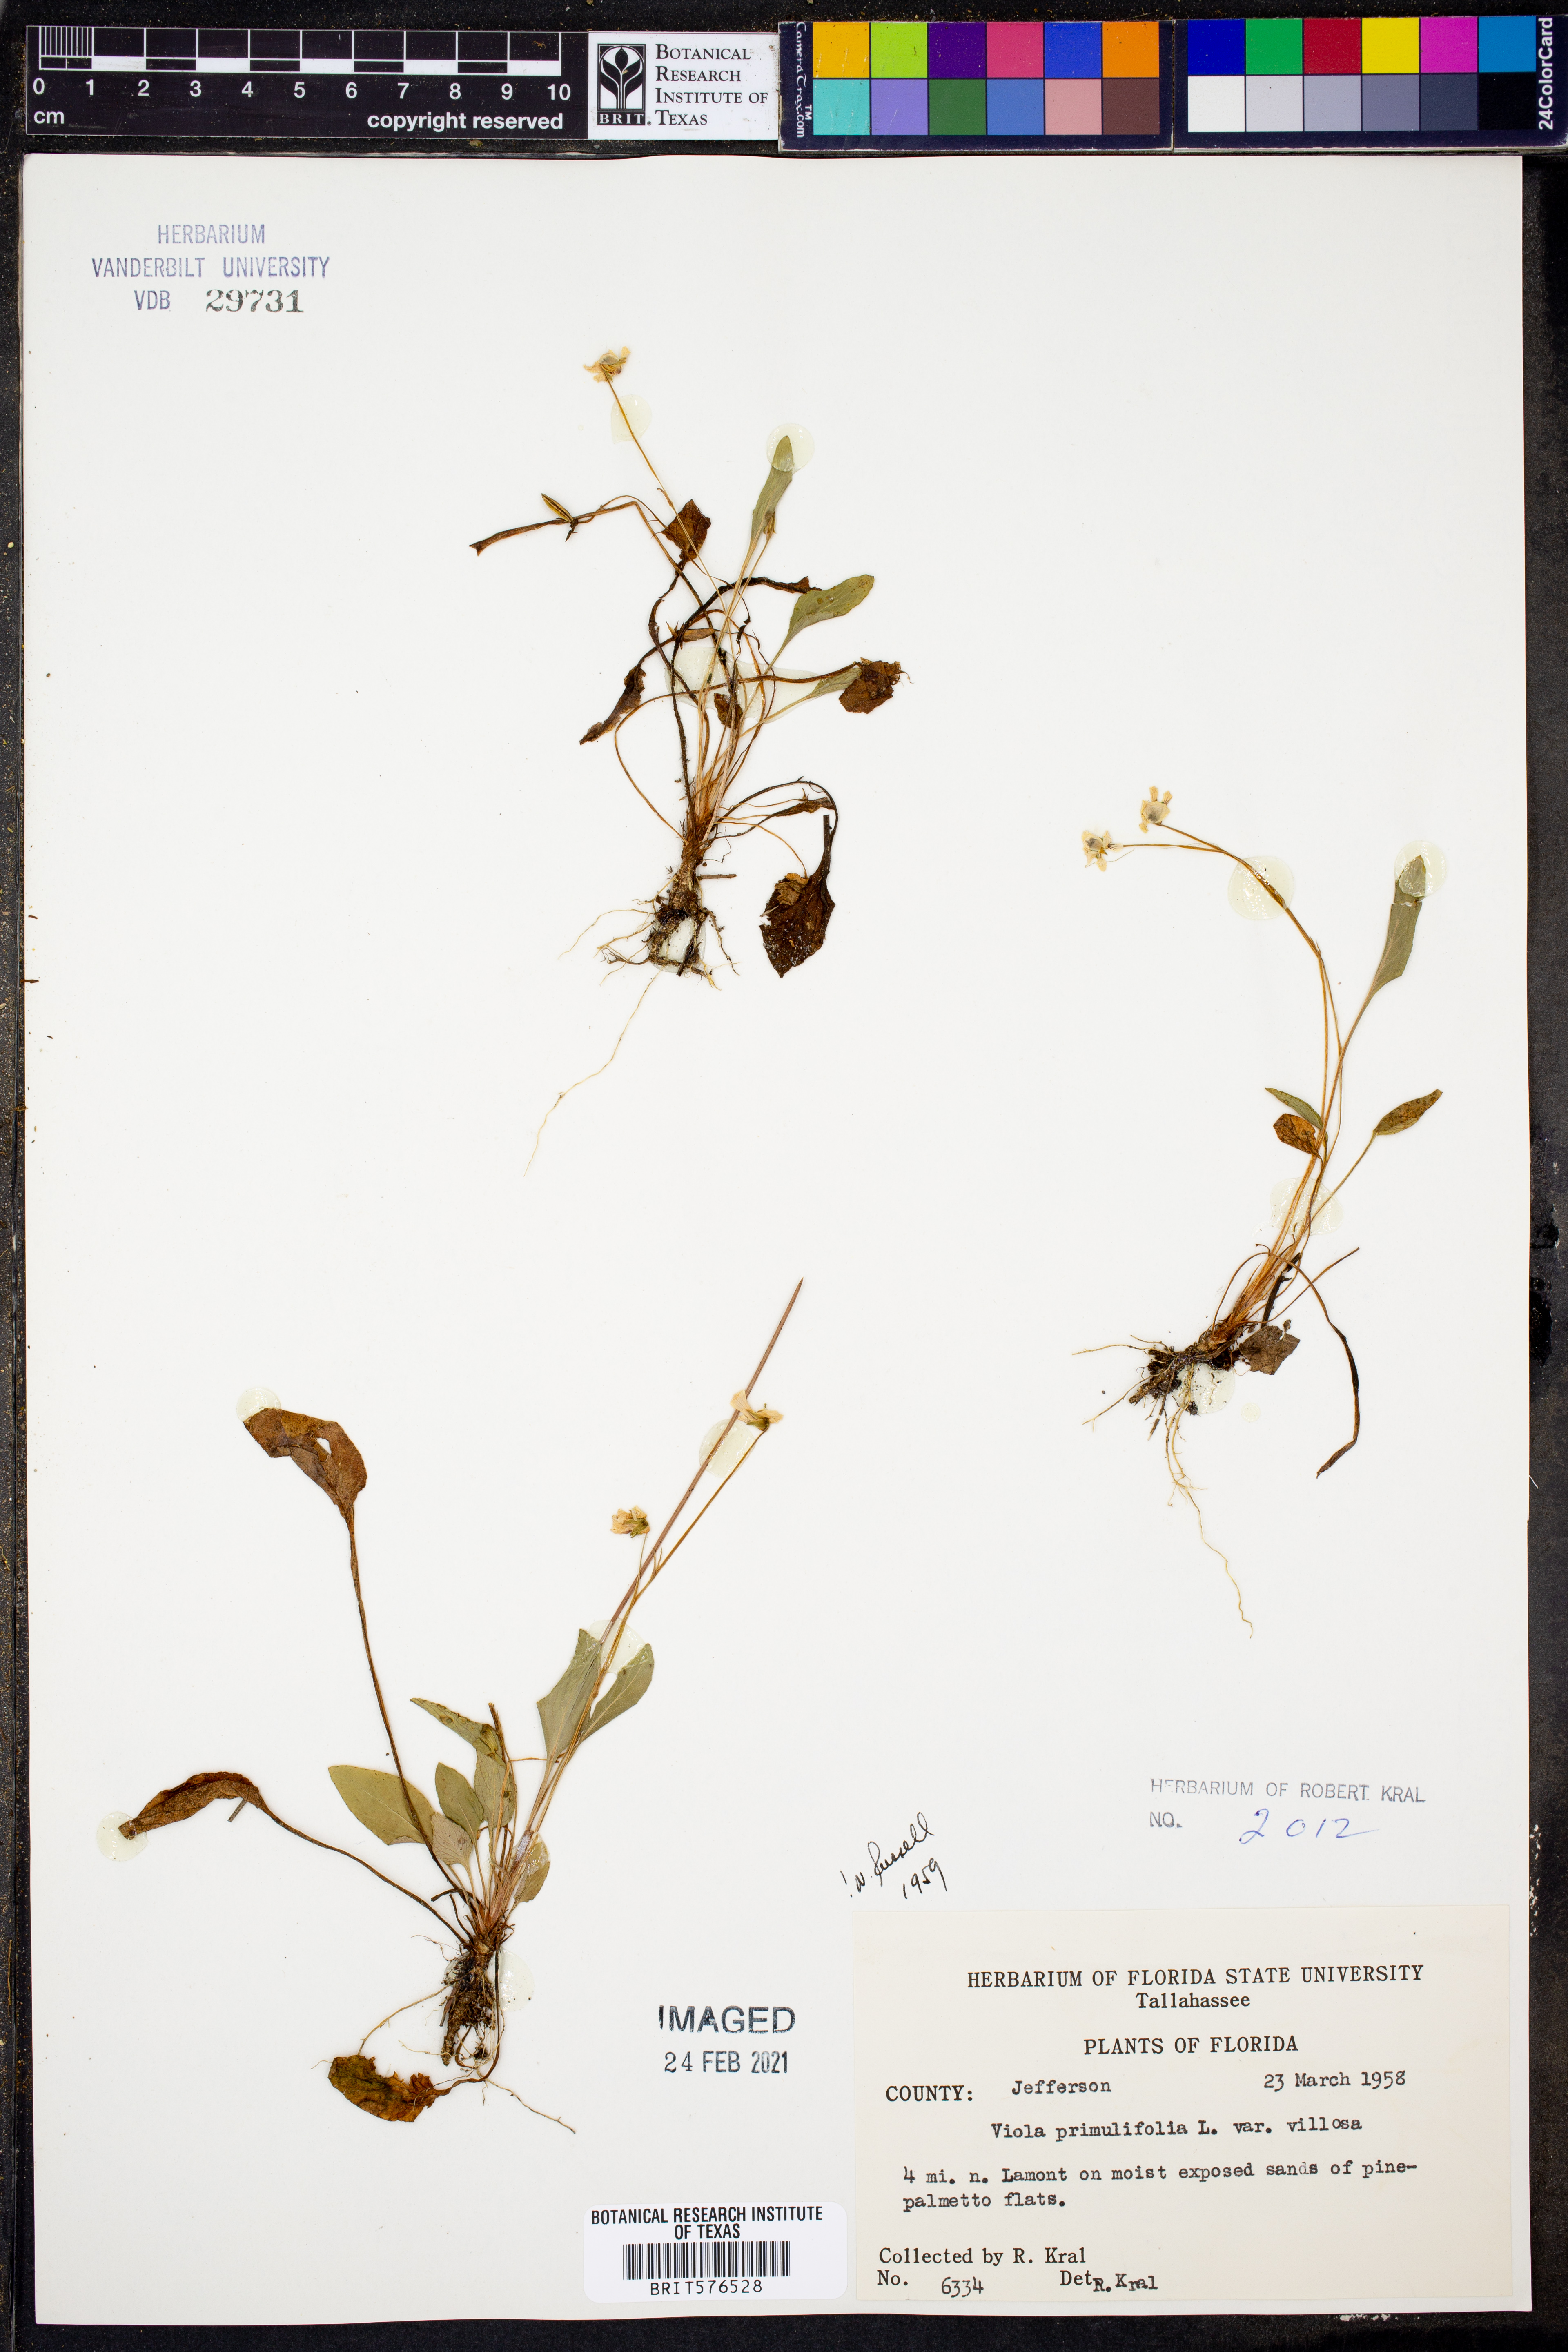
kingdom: Plantae
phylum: Tracheophyta
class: Magnoliopsida
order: Malpighiales
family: Violaceae
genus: Viola
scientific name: Viola primulifolia
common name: Primrose-leaf violet
